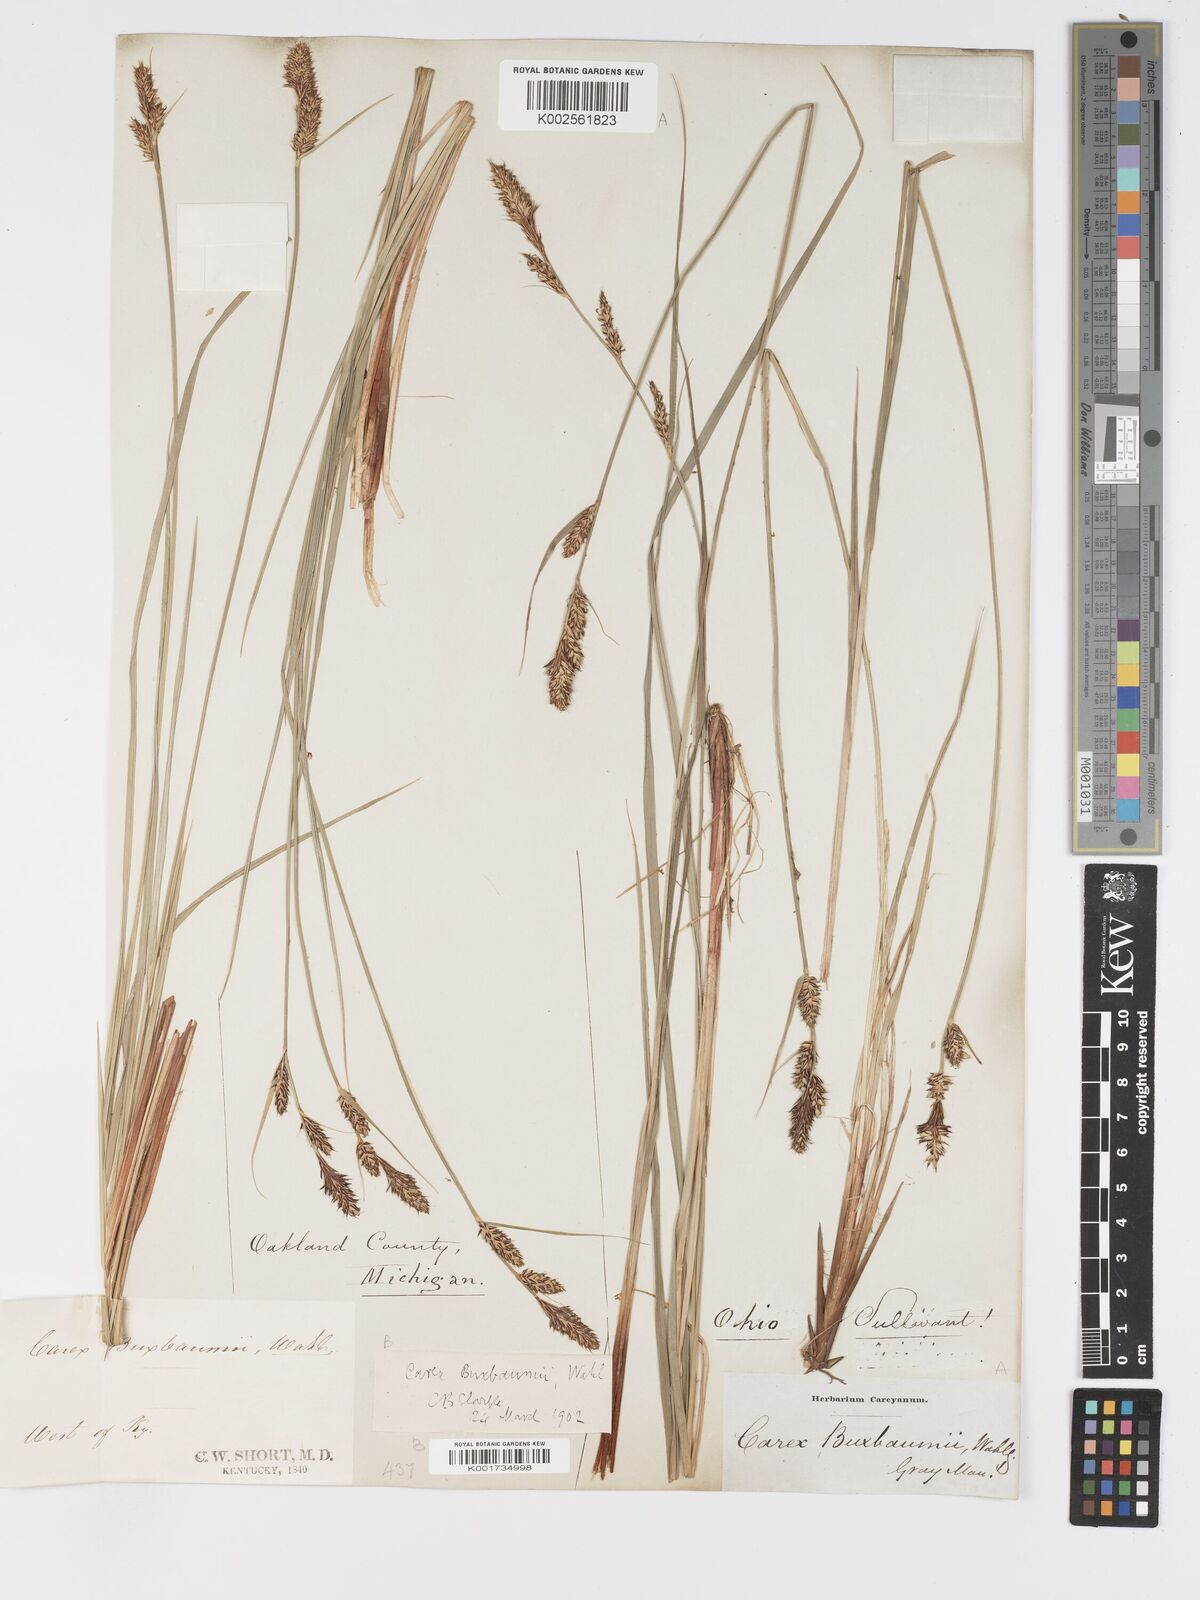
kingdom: Plantae
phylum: Tracheophyta
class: Liliopsida
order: Poales
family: Cyperaceae
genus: Carex
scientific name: Carex buxbaumii
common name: Club sedge
